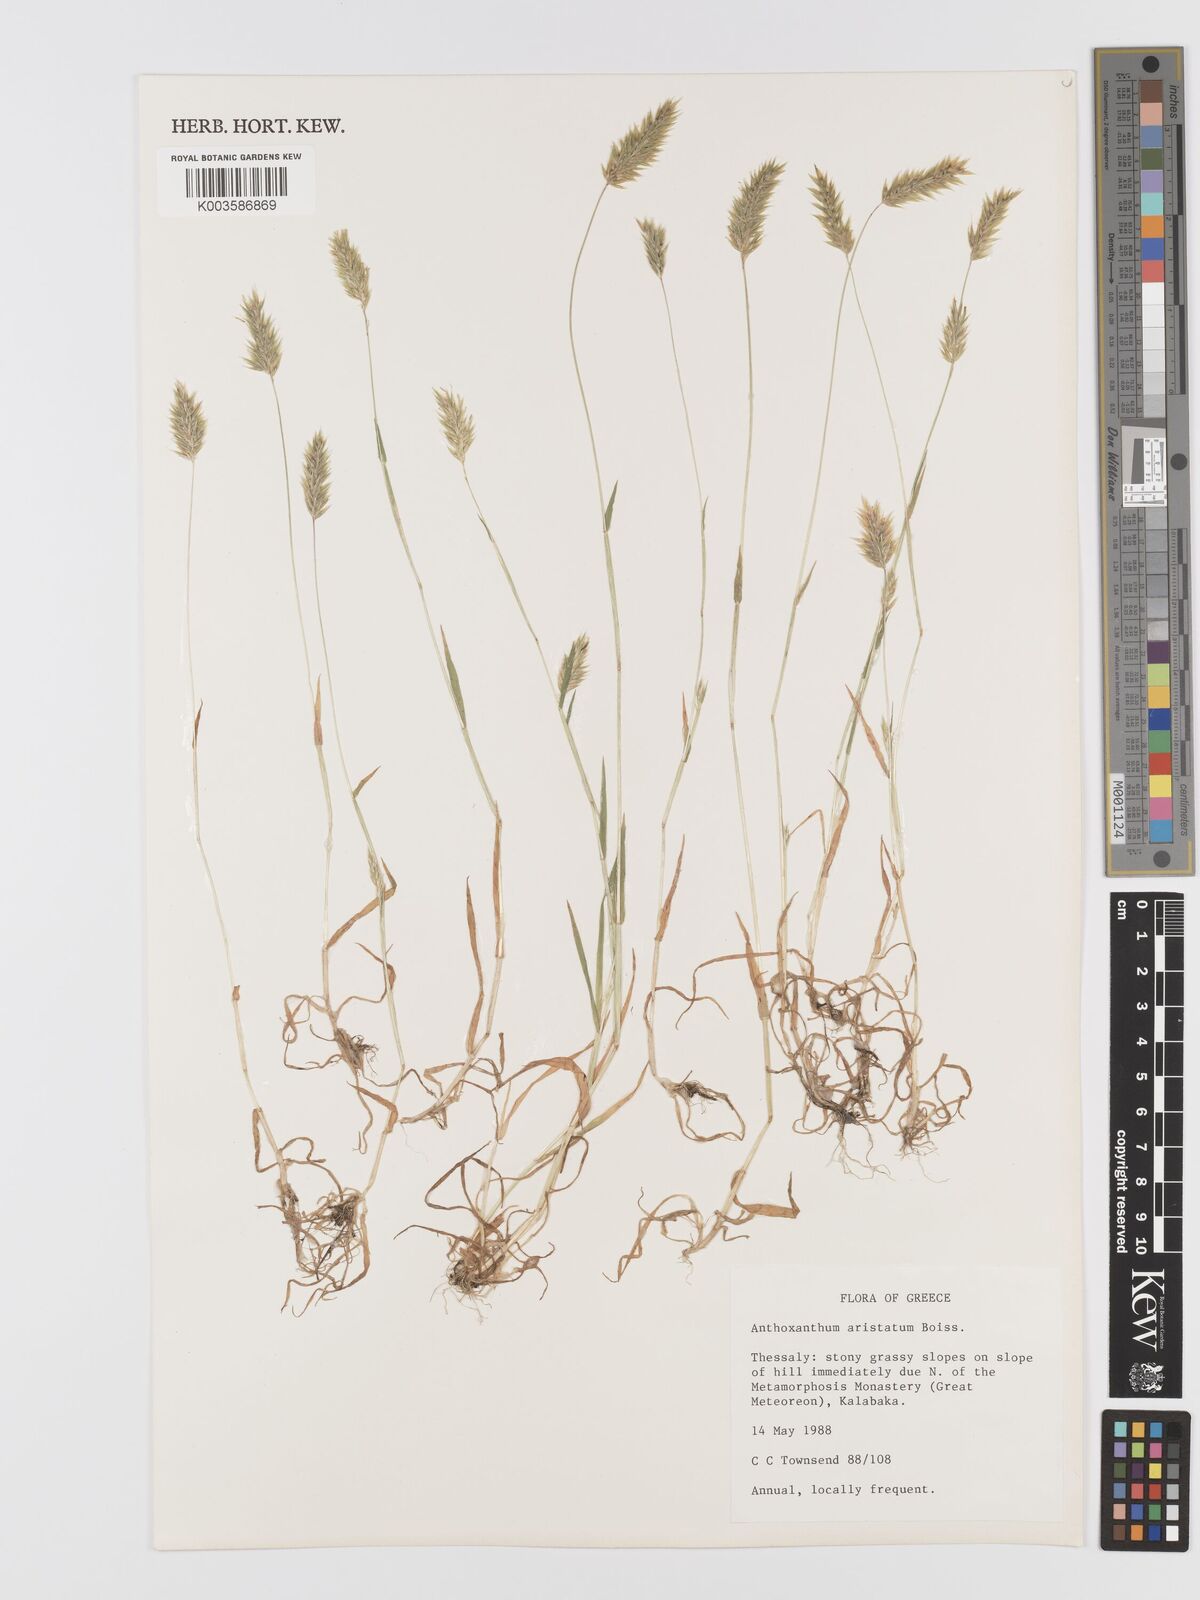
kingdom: Plantae
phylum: Tracheophyta
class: Liliopsida
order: Poales
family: Poaceae
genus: Anthoxanthum
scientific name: Anthoxanthum
